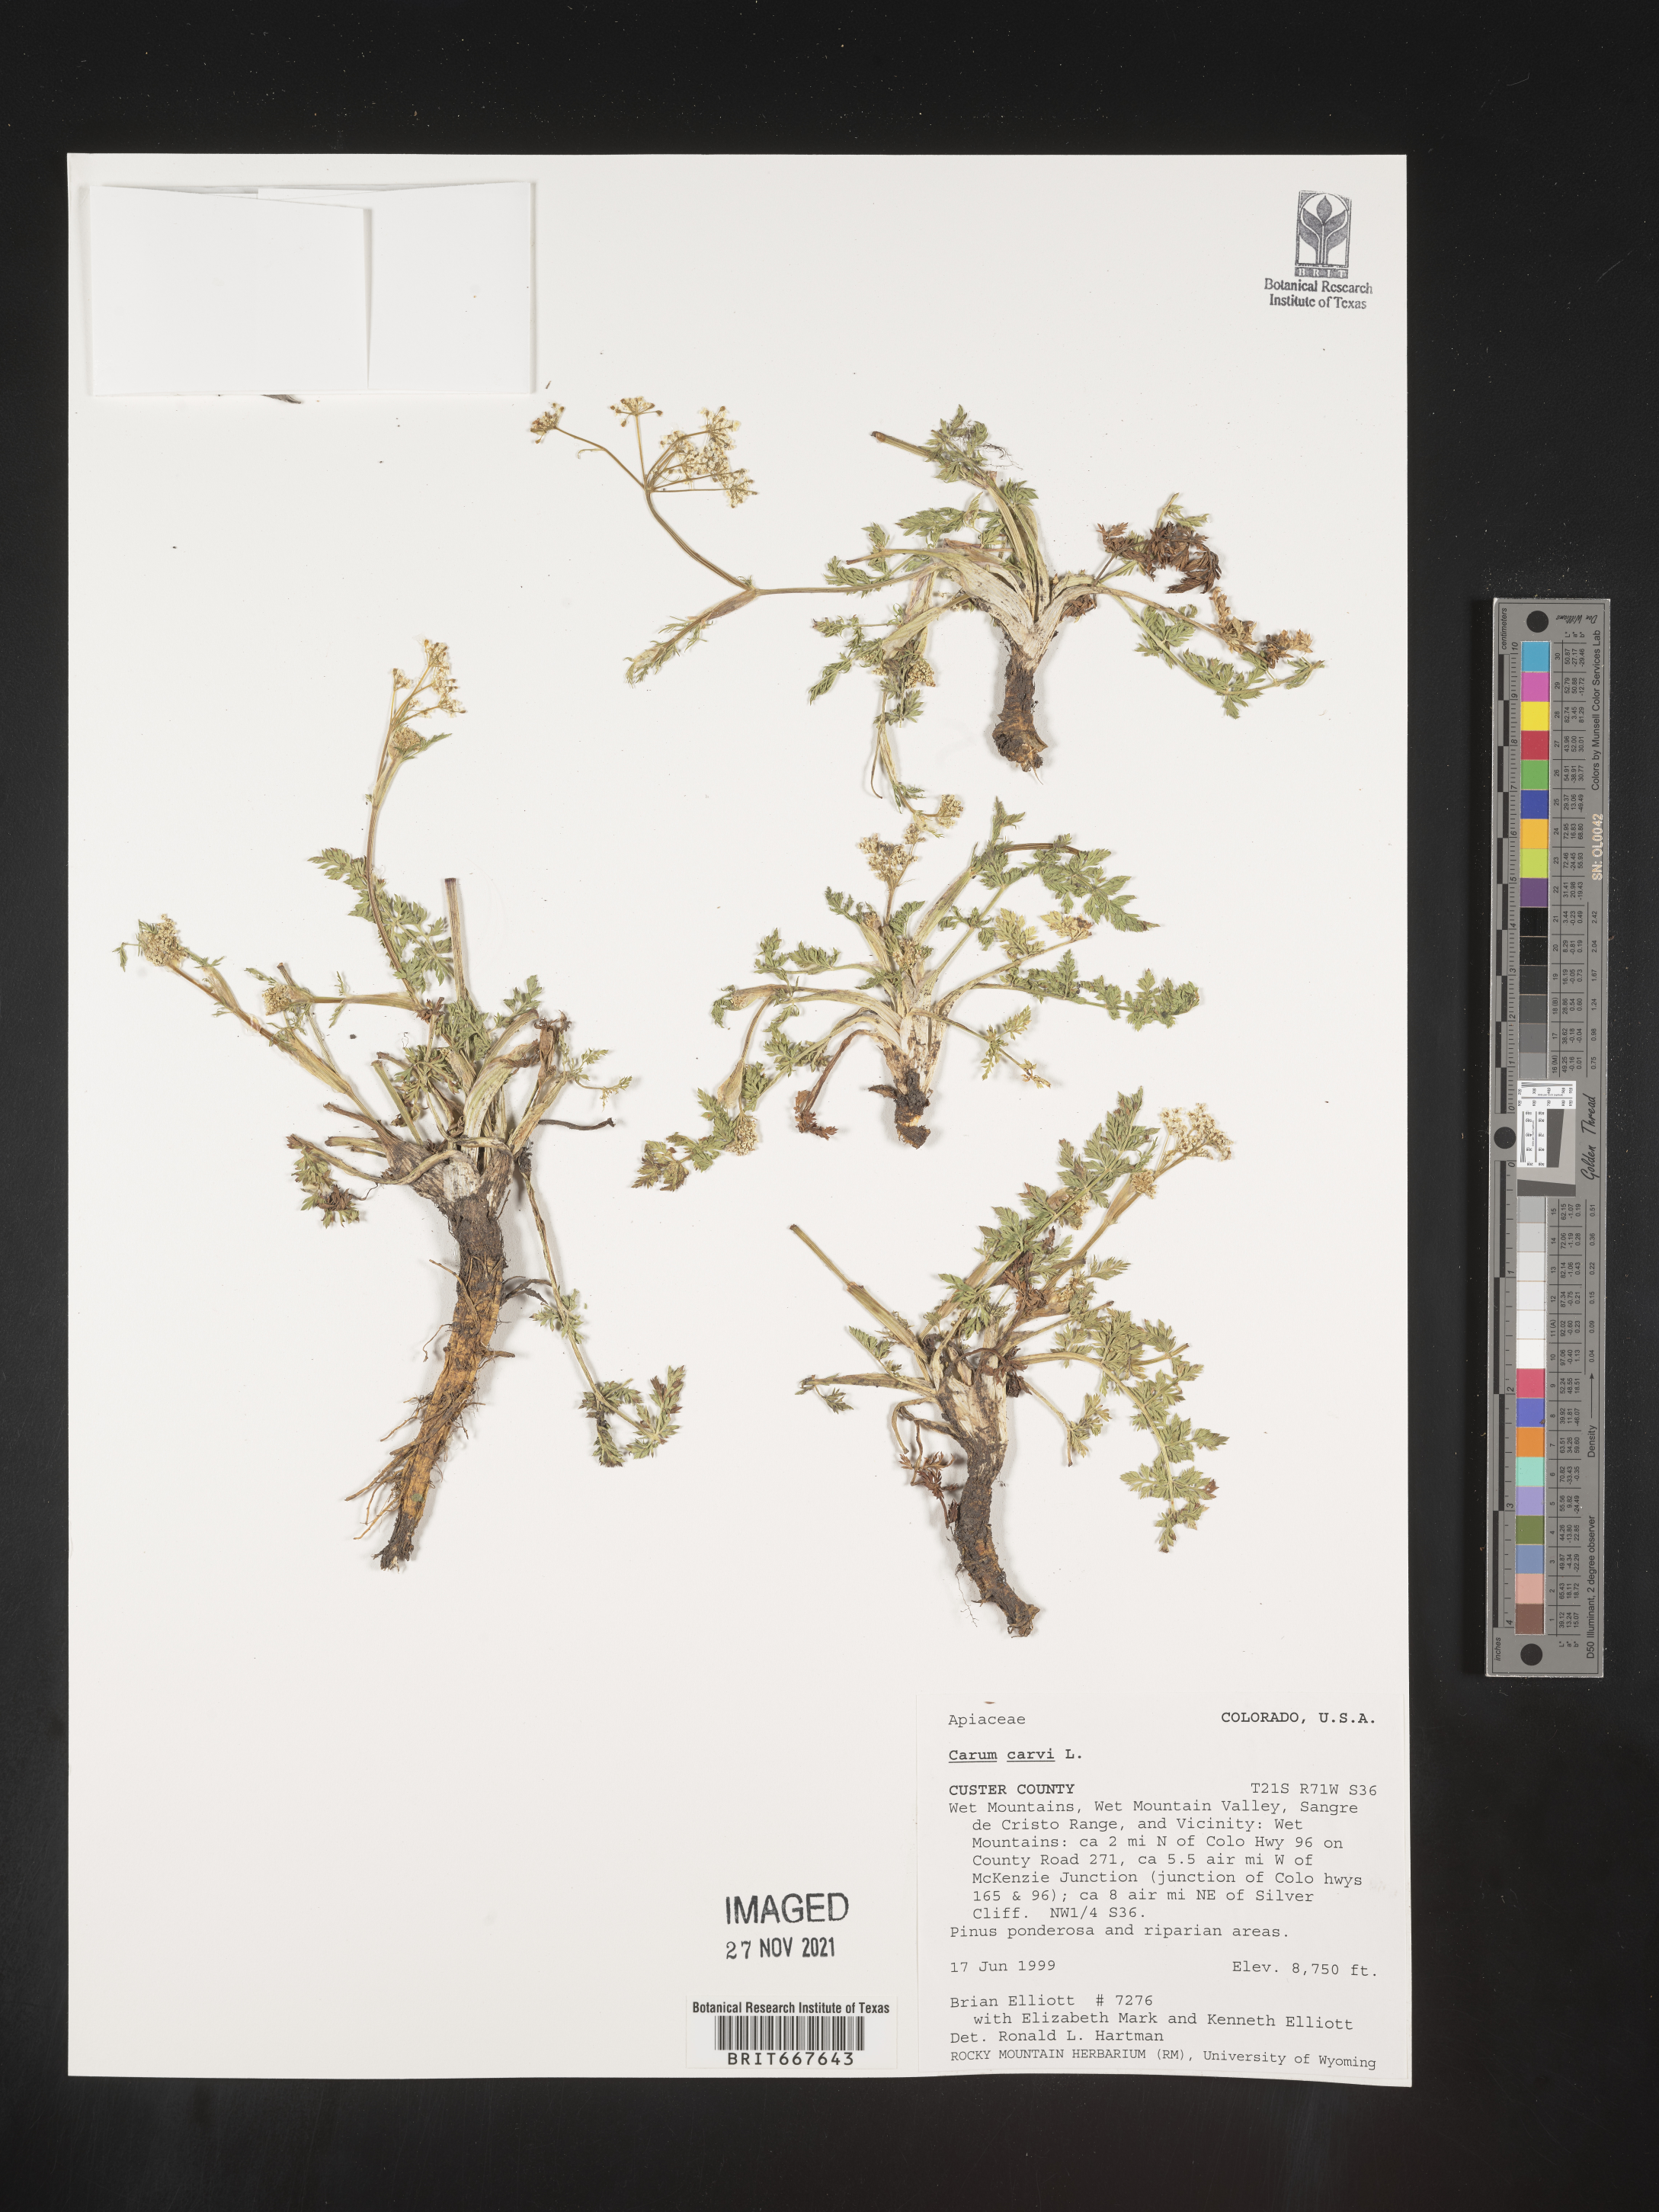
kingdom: Plantae
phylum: Tracheophyta
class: Magnoliopsida
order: Apiales
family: Apiaceae
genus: Carum
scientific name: Carum
